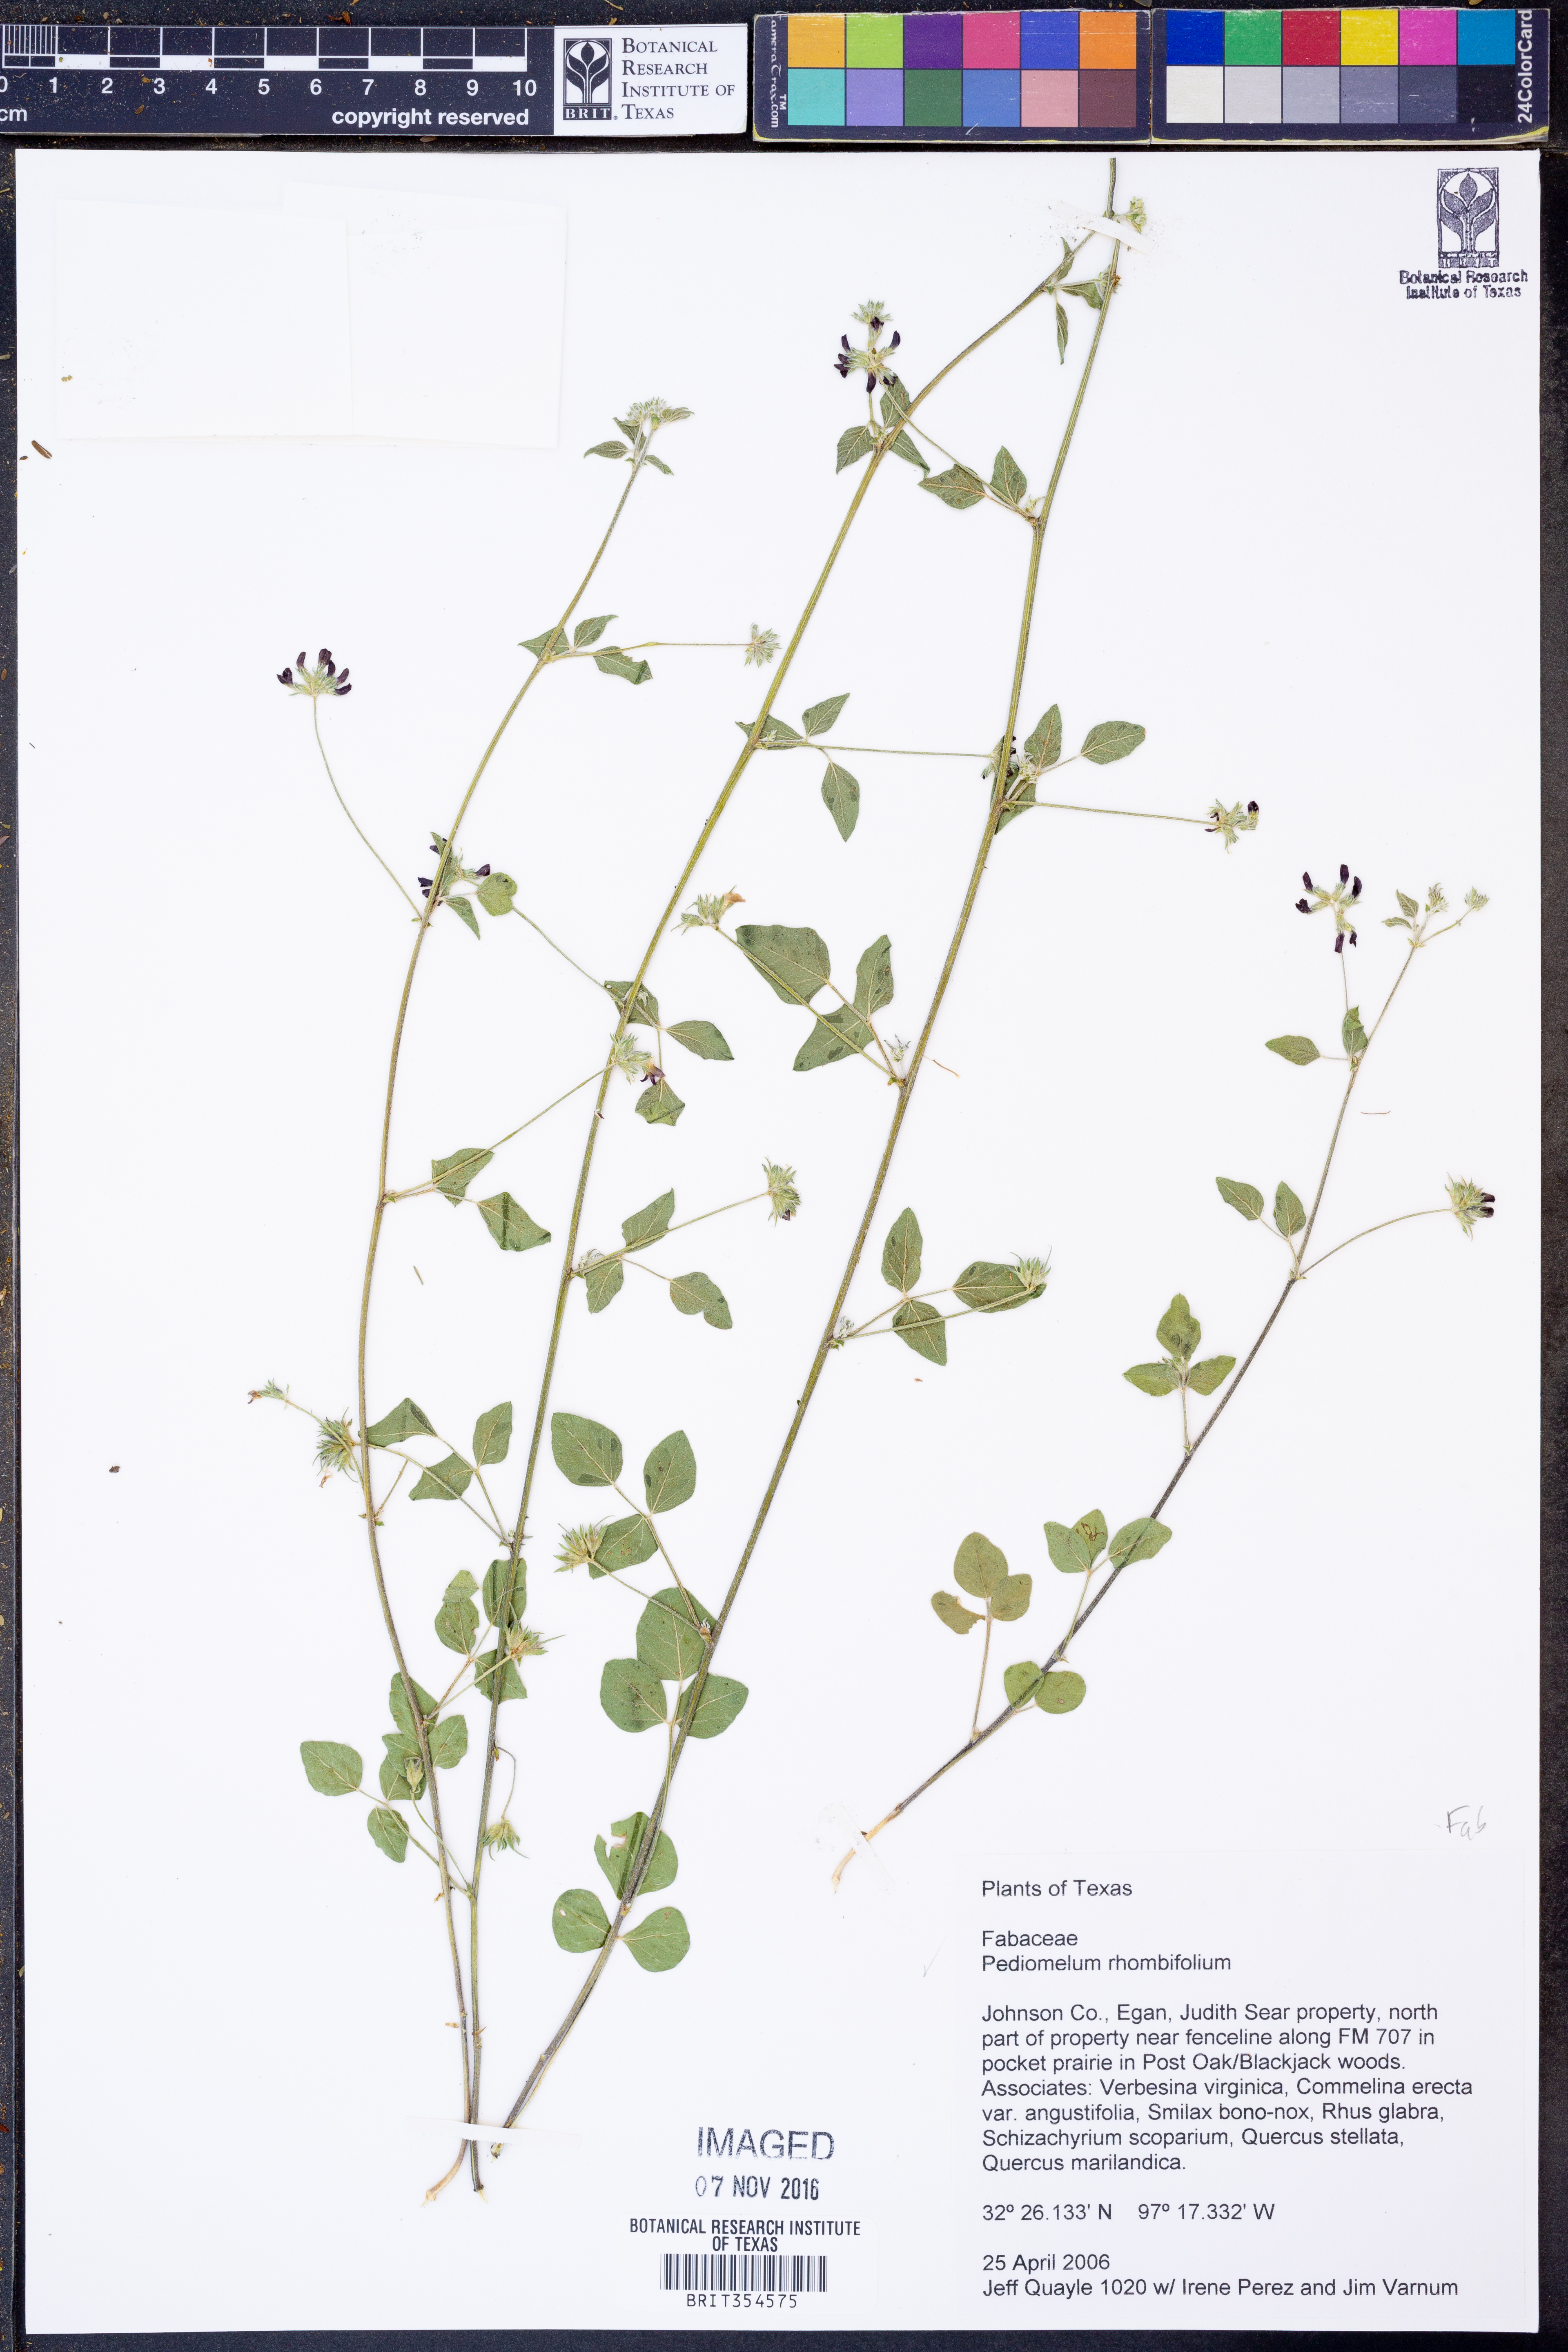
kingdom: Plantae
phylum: Tracheophyta
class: Magnoliopsida
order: Fabales
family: Fabaceae
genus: Pediomelum
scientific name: Pediomelum rhombifolium
